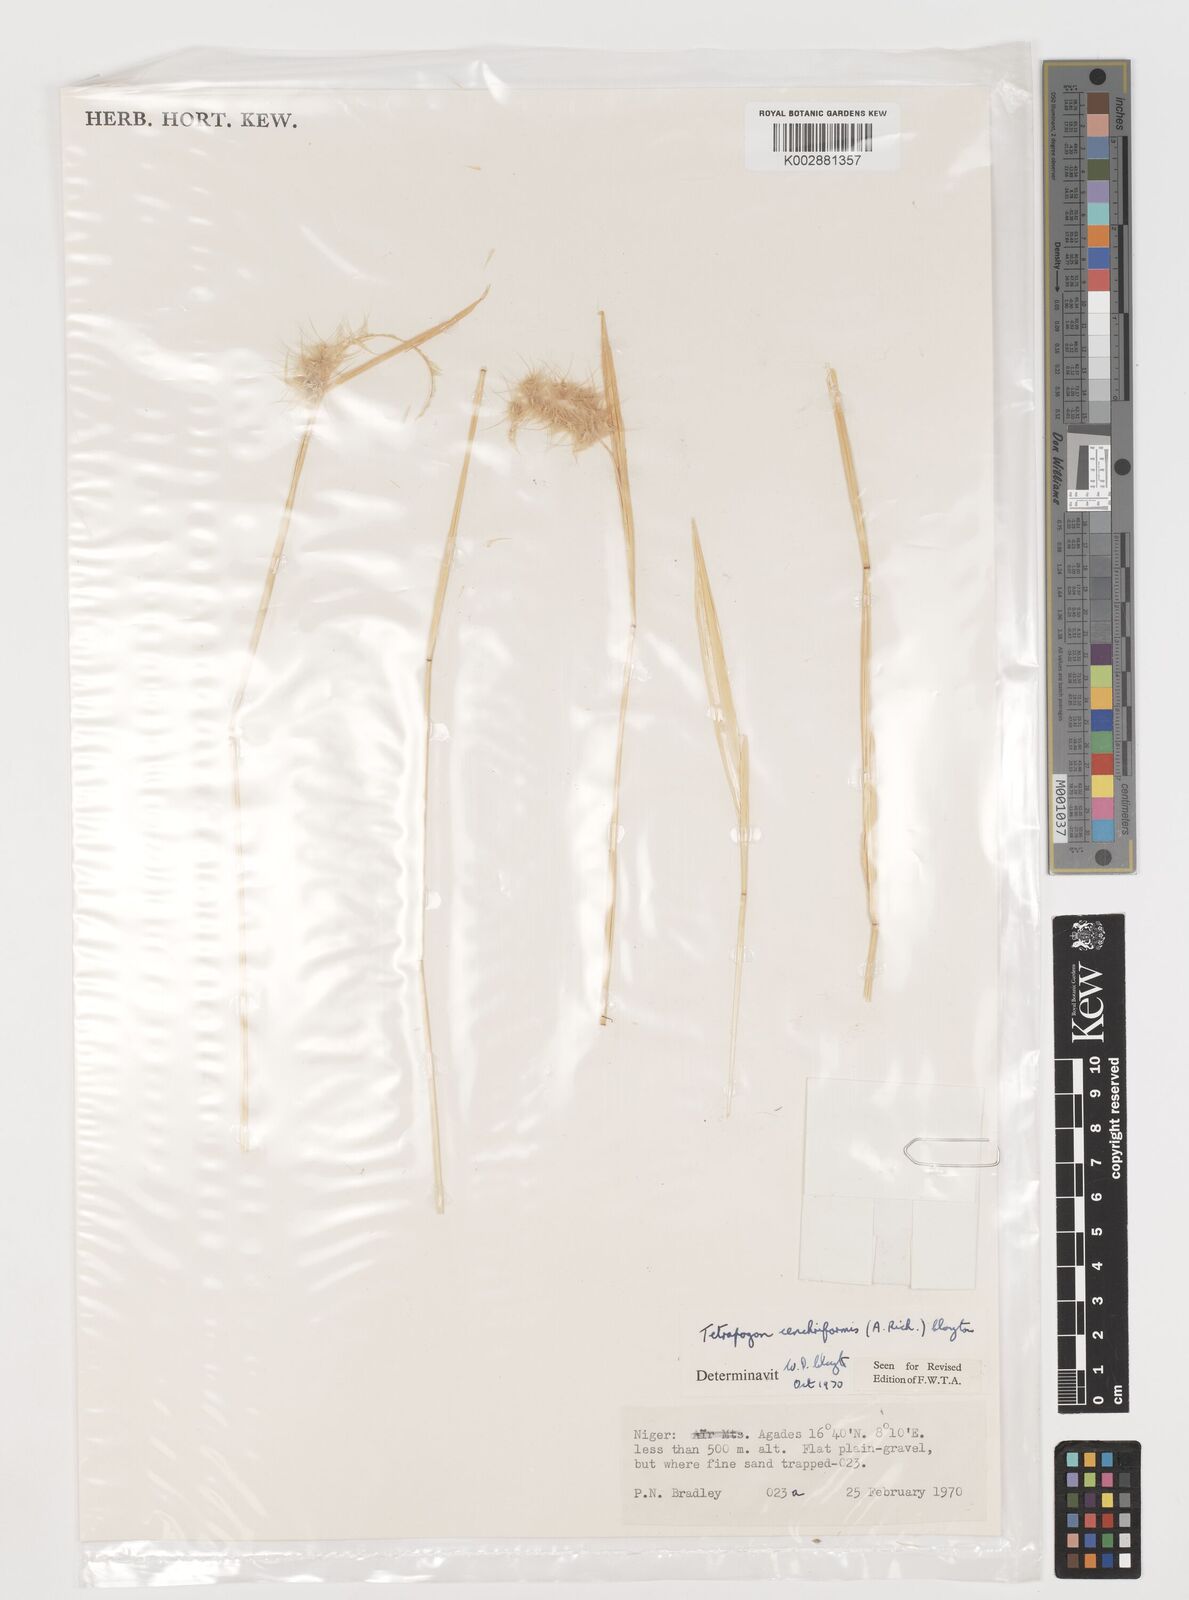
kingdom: Plantae
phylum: Tracheophyta
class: Liliopsida
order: Poales
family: Poaceae
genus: Tetrapogon
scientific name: Tetrapogon cenchriformis
